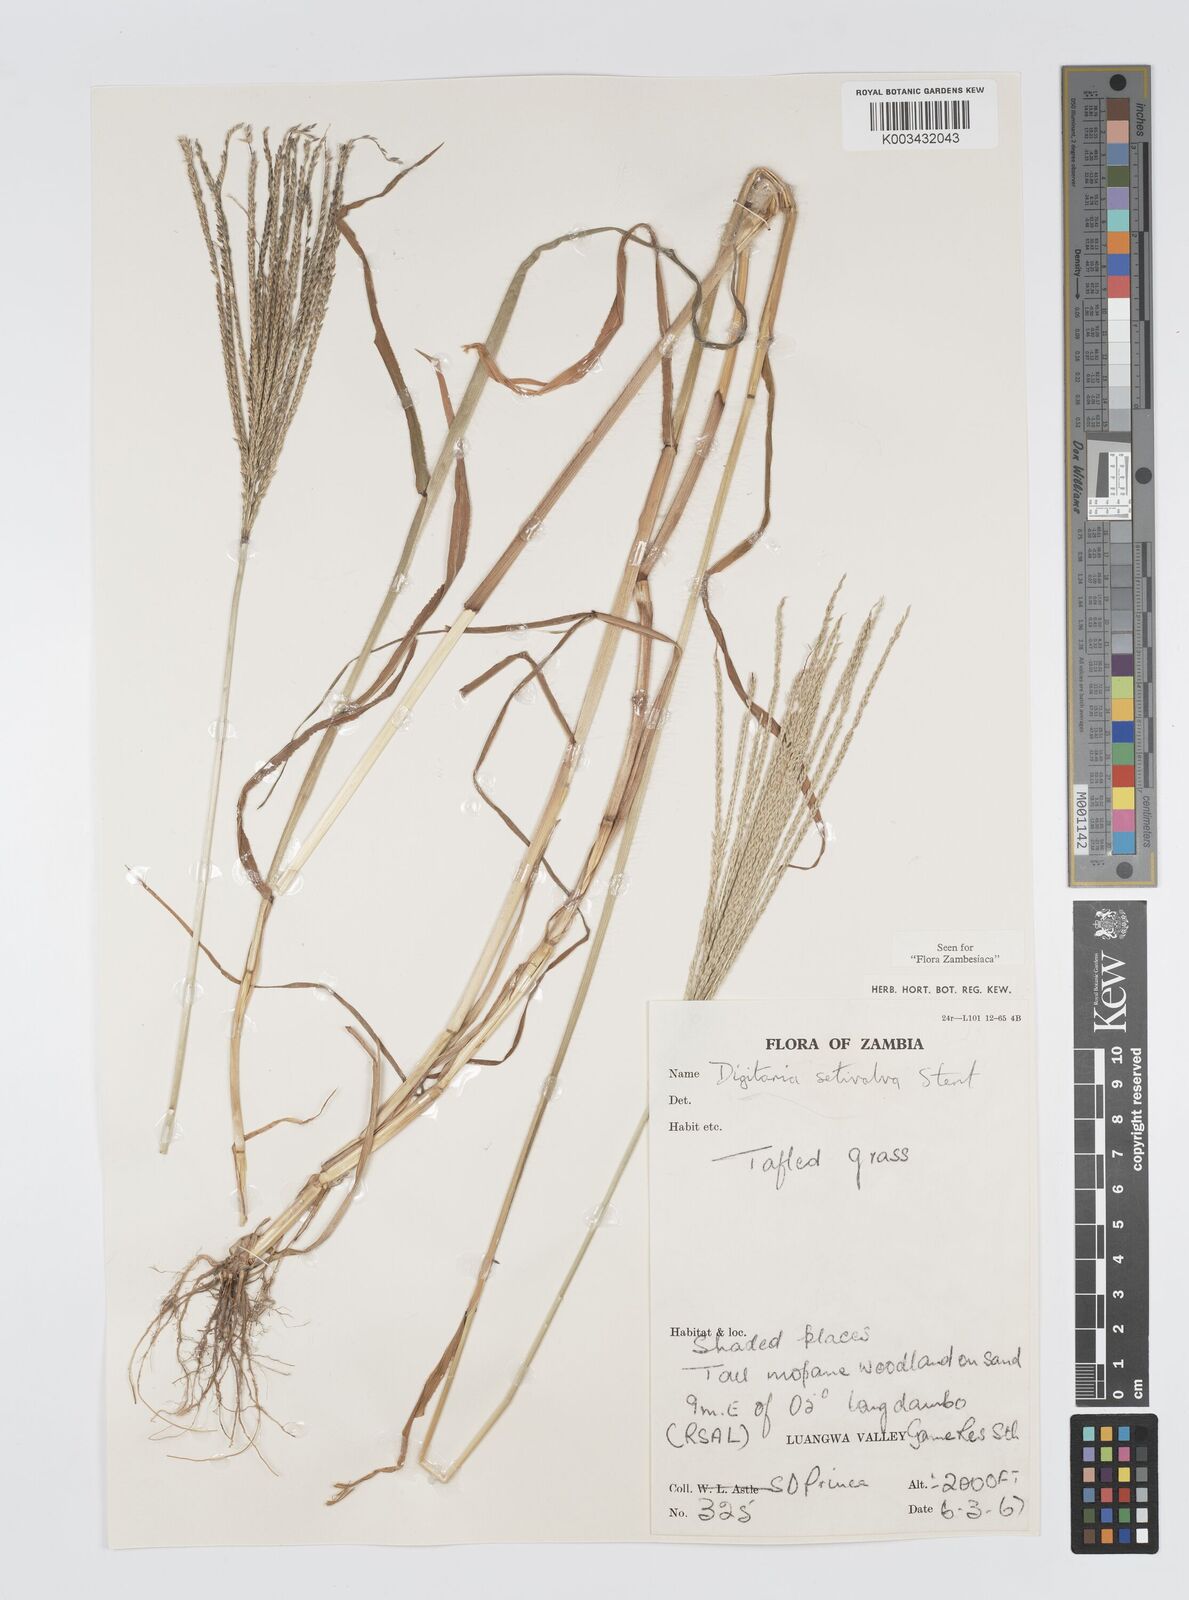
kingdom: Plantae
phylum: Tracheophyta
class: Liliopsida
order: Poales
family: Poaceae
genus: Digitaria
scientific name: Digitaria milanjiana
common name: Madagascar crabgrass
